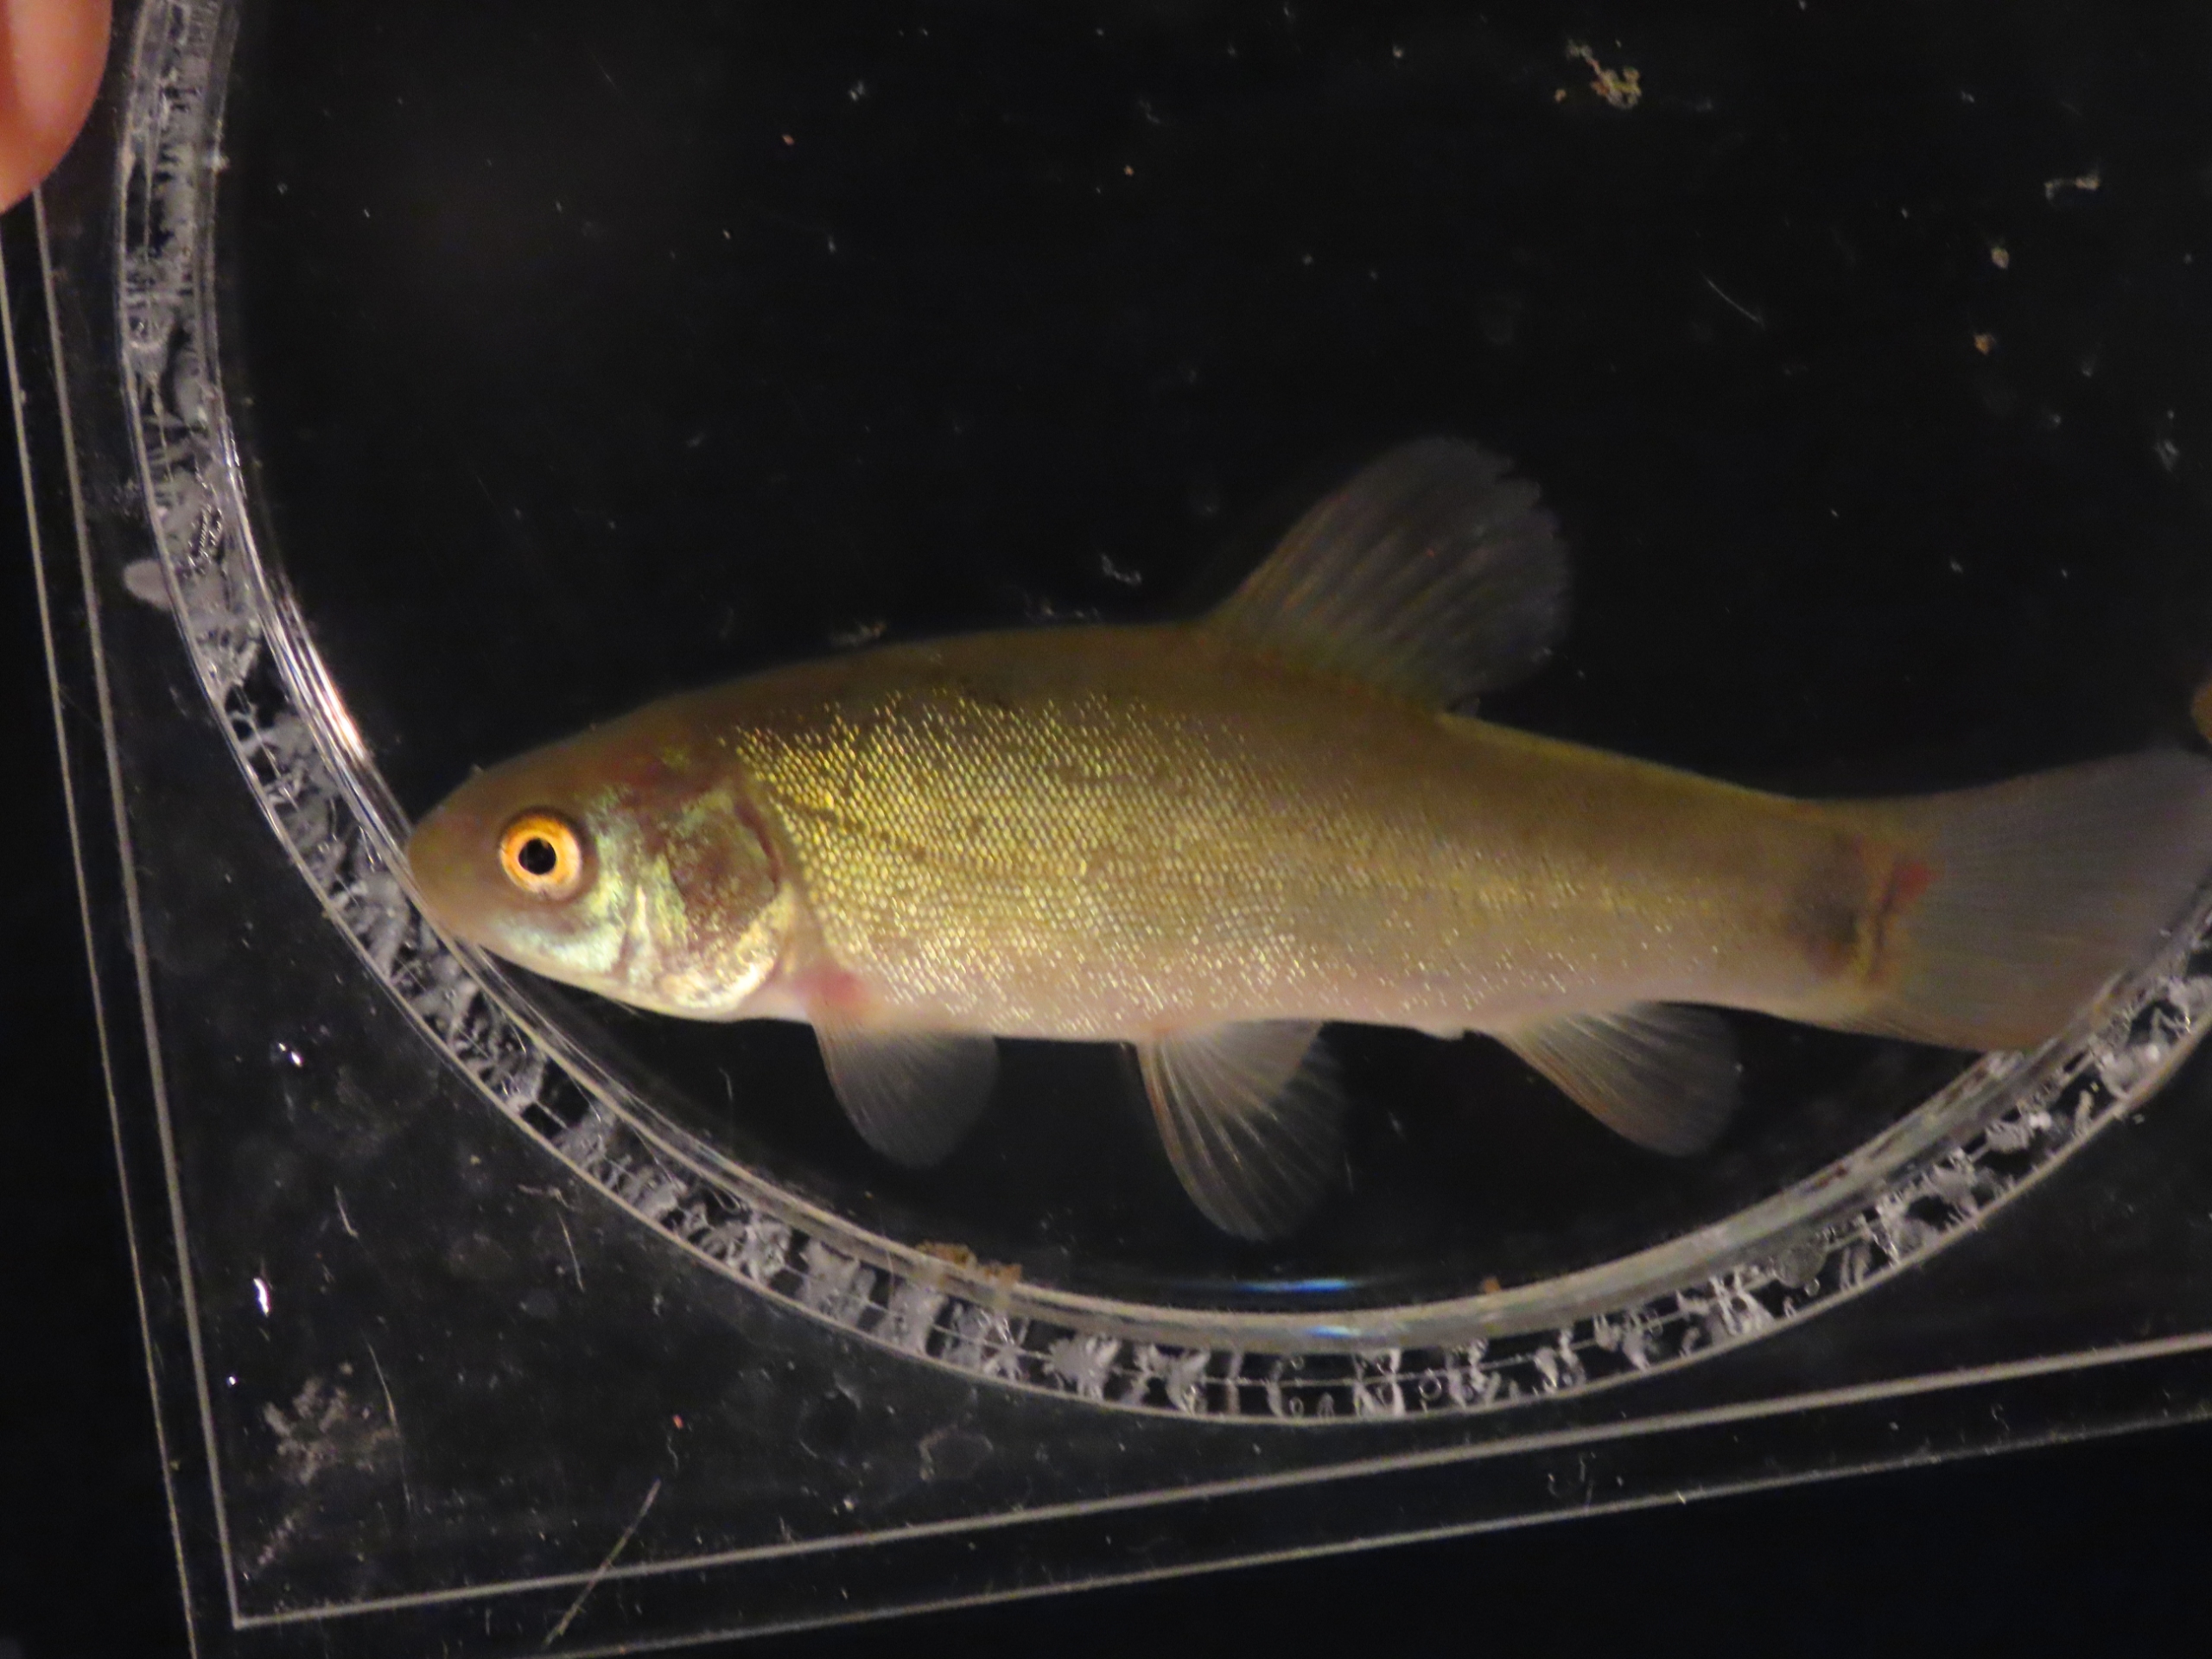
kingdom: Animalia
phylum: Chordata
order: Cypriniformes
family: Cyprinidae
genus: Tinca
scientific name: Tinca tinca
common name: Suder
